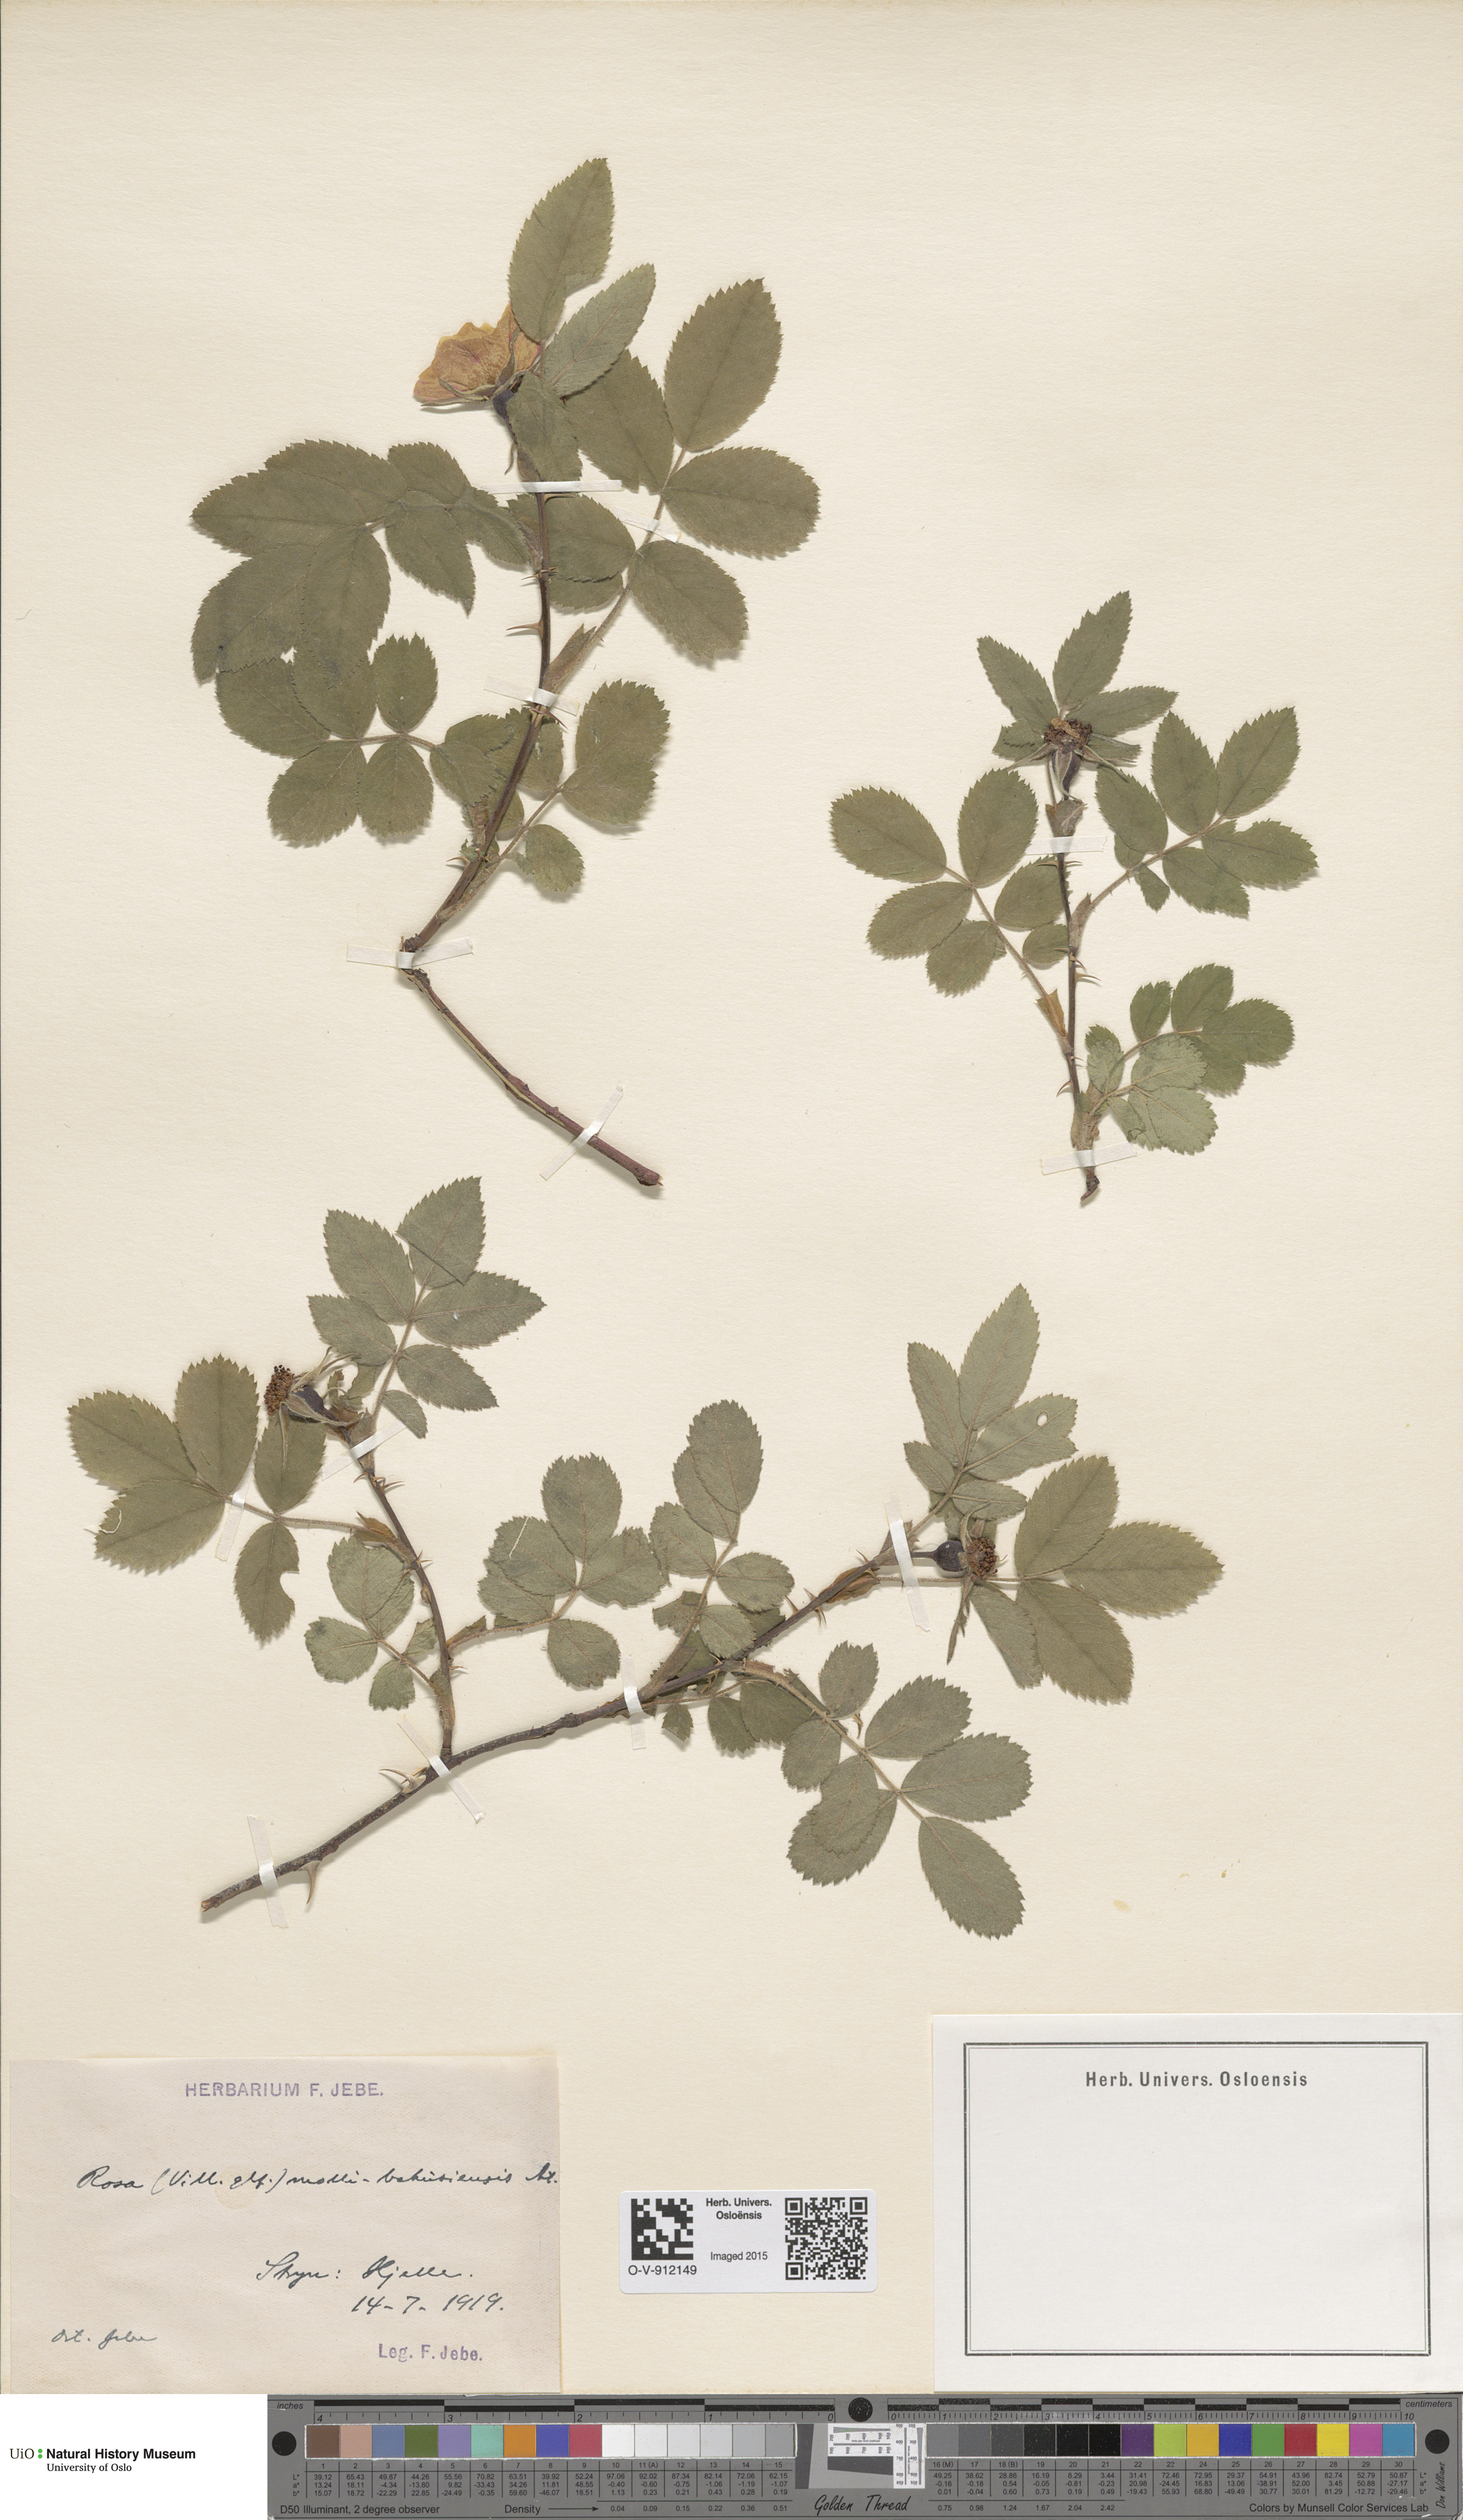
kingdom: Plantae
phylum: Tracheophyta
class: Magnoliopsida
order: Rosales
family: Rosaceae
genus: Rosa
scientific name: Rosa mollis
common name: Rose
